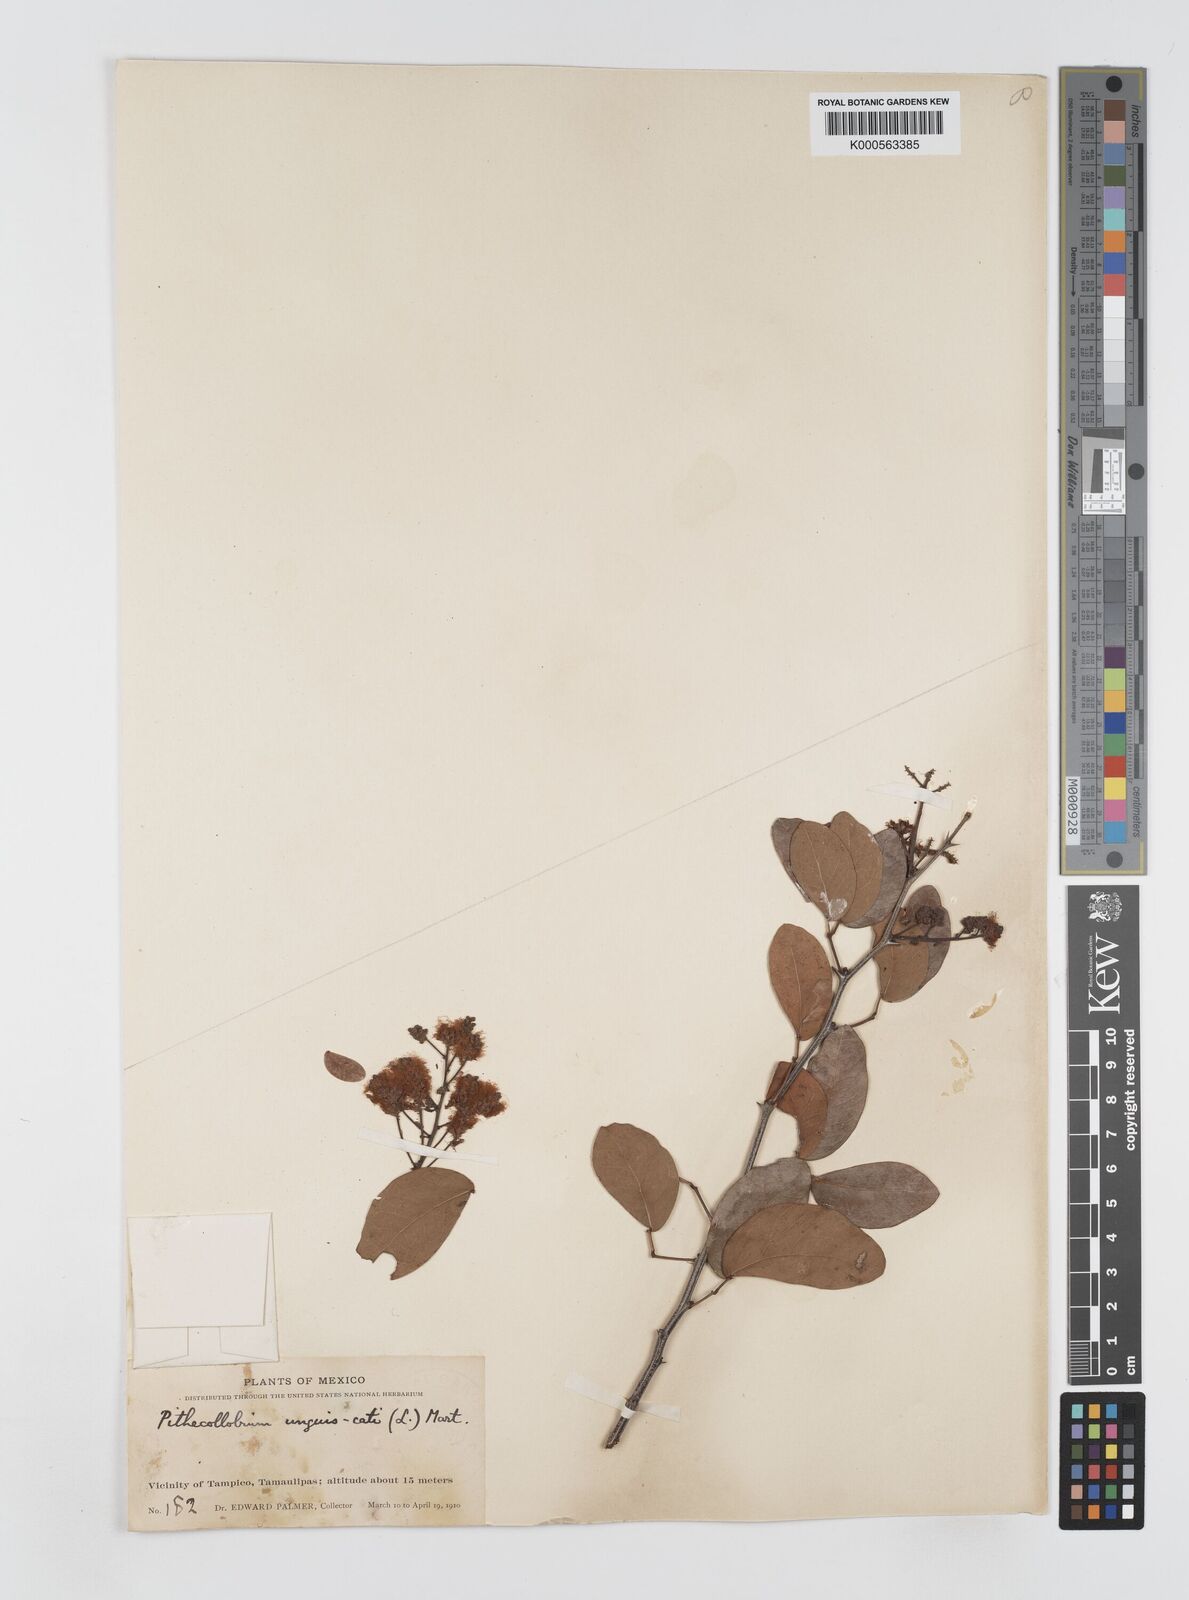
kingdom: Plantae
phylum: Tracheophyta
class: Magnoliopsida
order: Fabales
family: Fabaceae
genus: Pithecellobium
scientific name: Pithecellobium unguis-cati
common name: Cat's-claw
